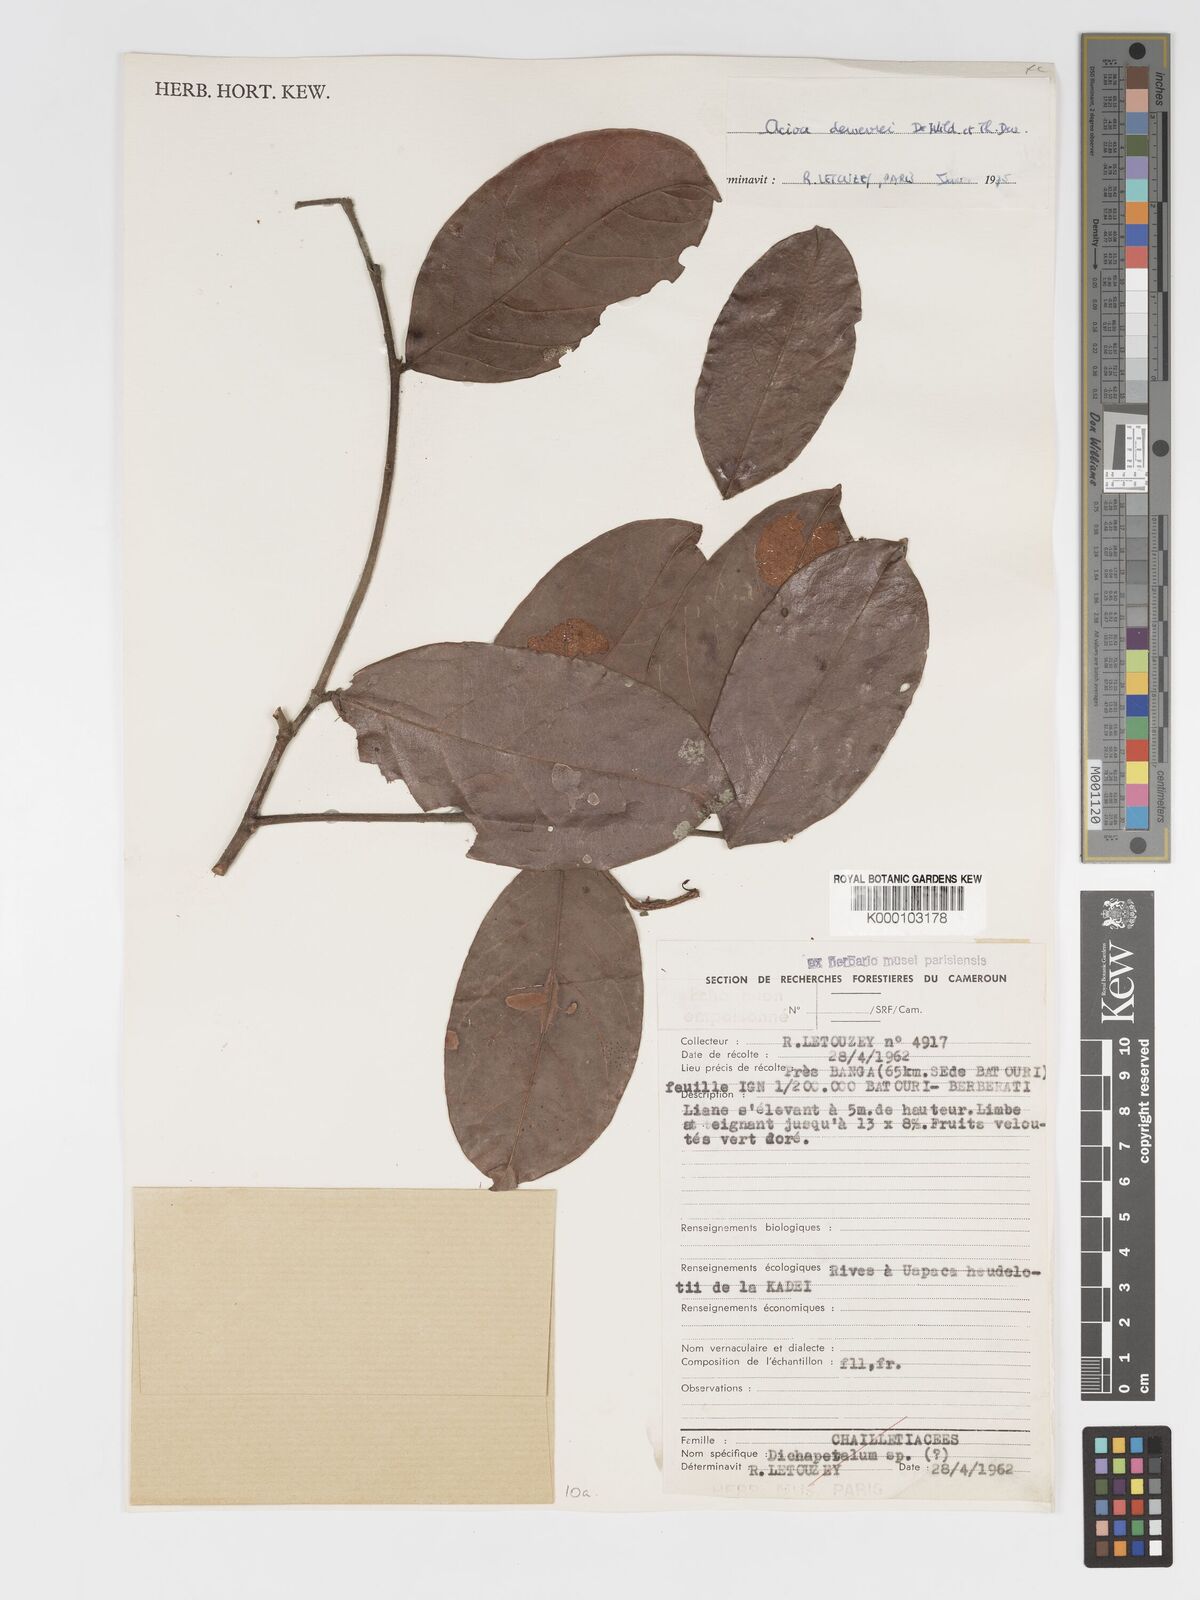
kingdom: Plantae
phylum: Tracheophyta
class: Magnoliopsida
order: Malpighiales
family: Chrysobalanaceae
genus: Dactyladenia
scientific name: Dactyladenia dewevrei
